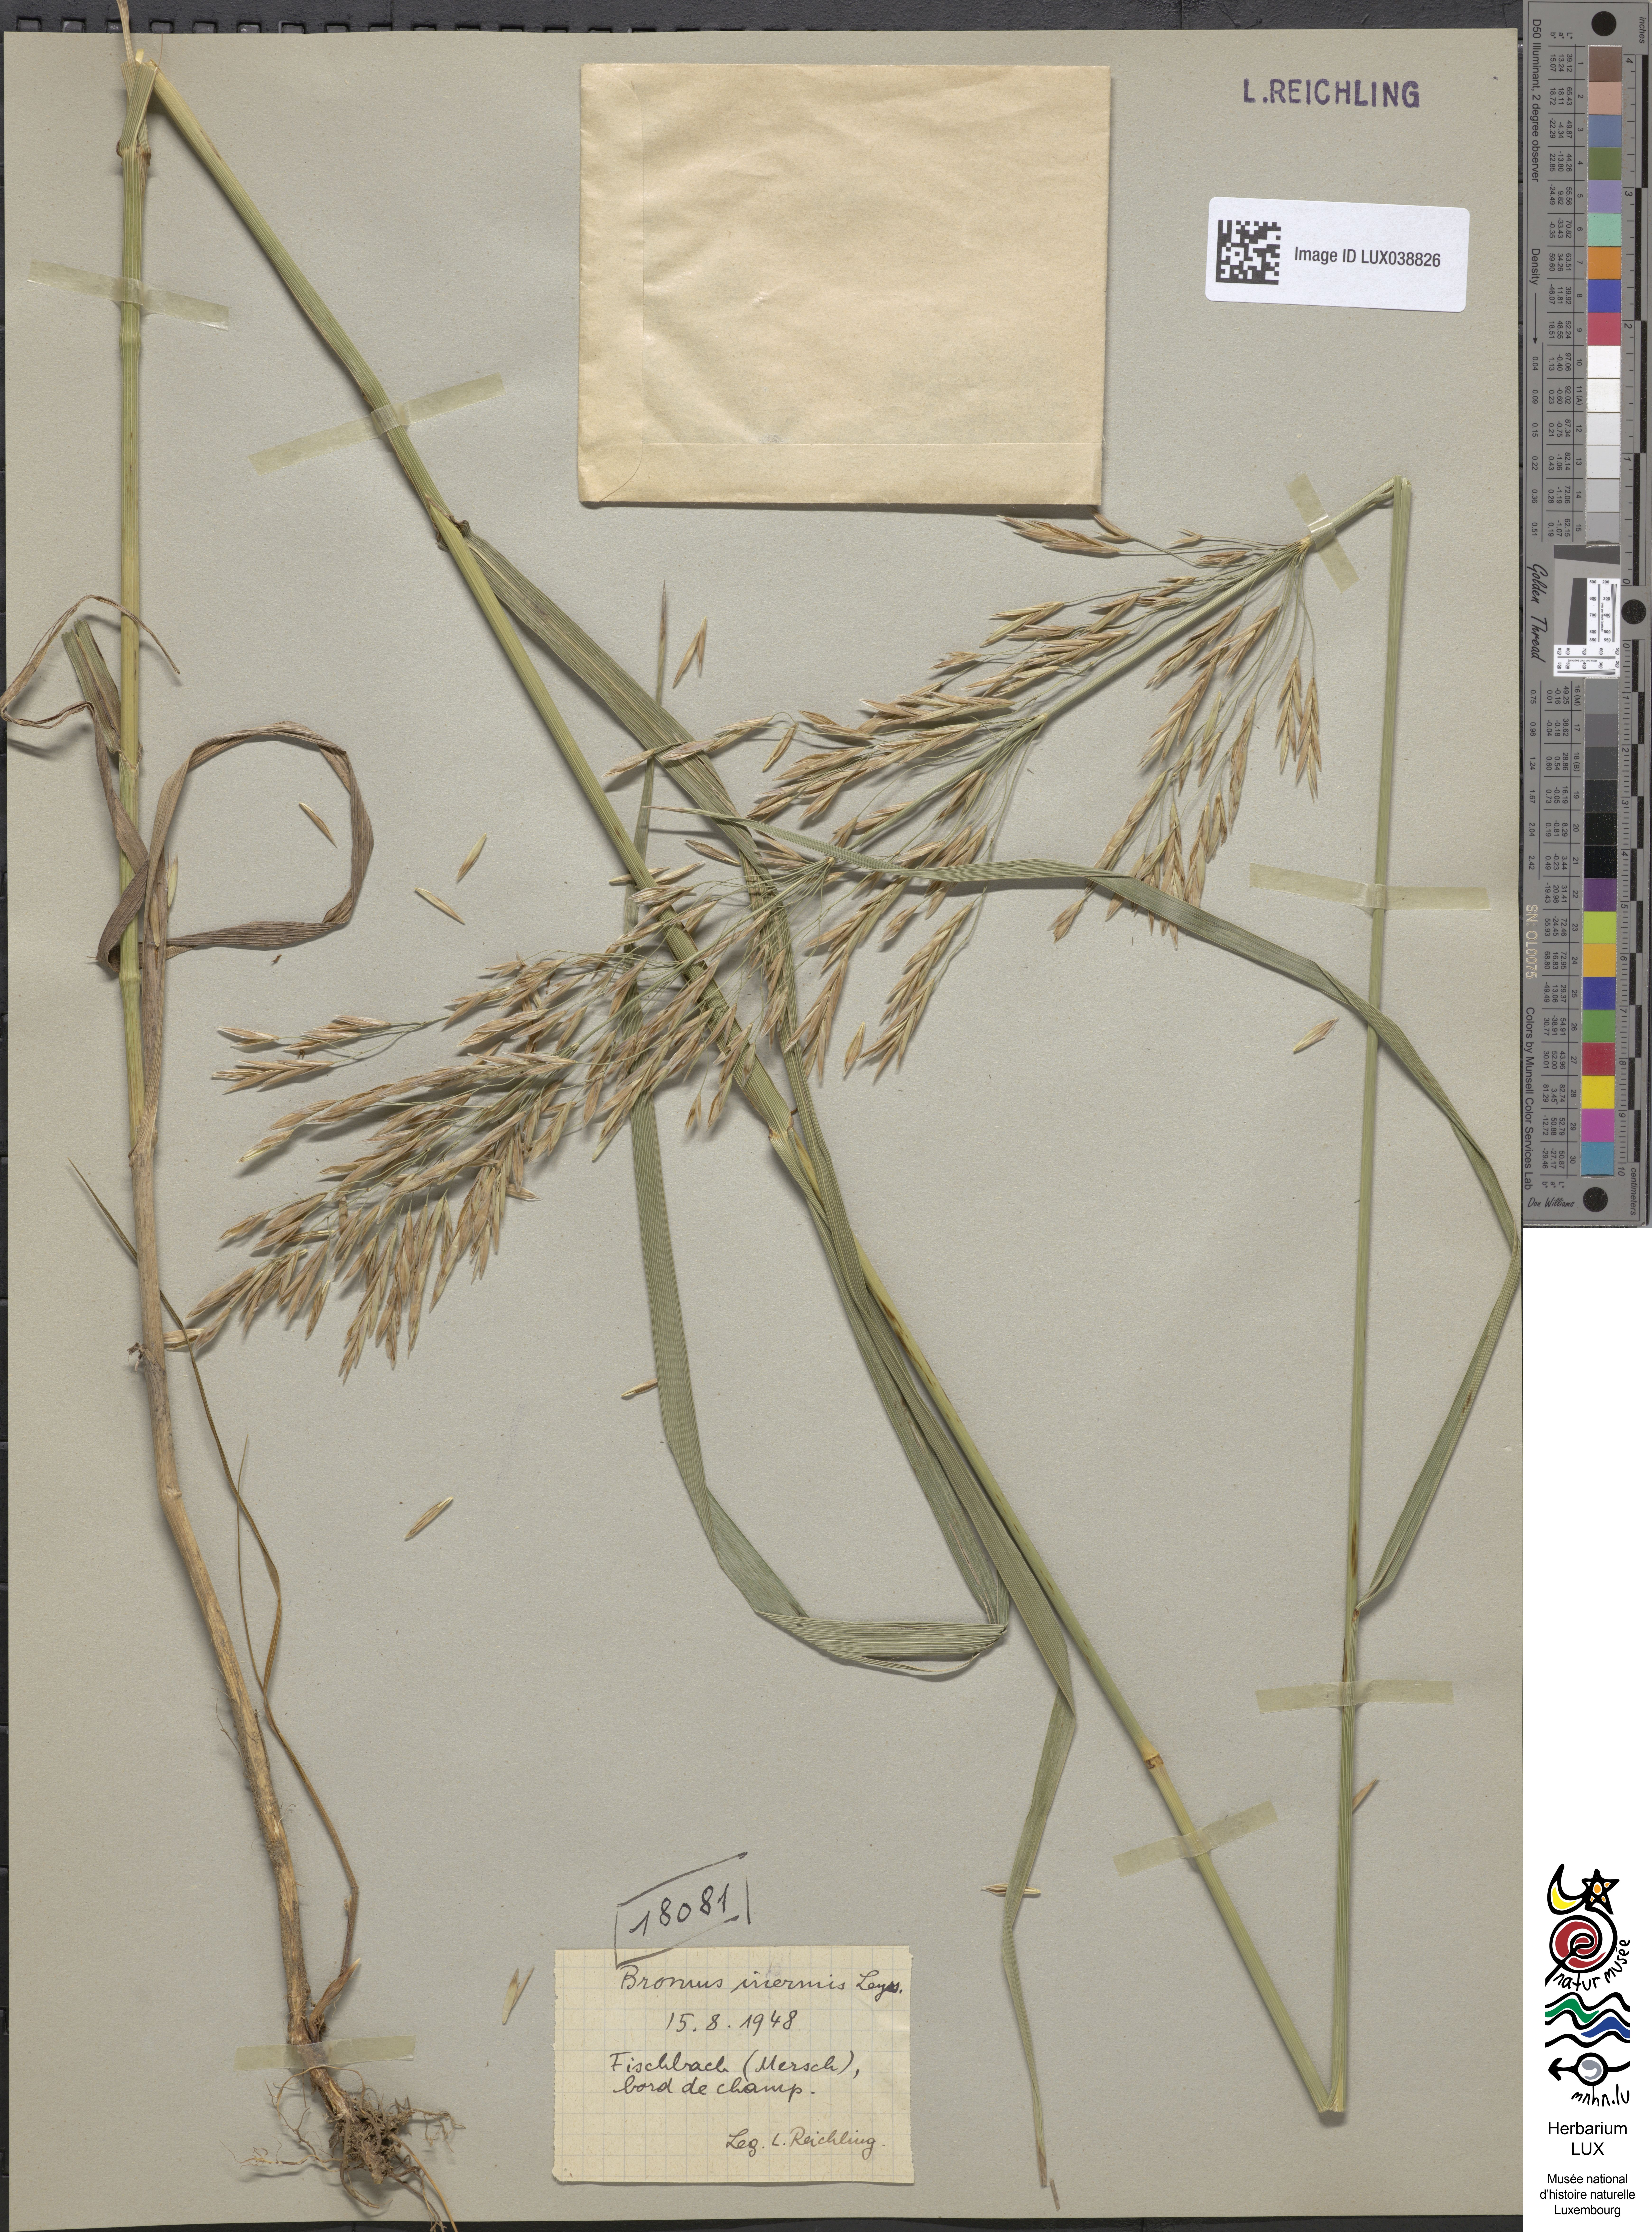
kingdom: Plantae
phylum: Tracheophyta
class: Liliopsida
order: Poales
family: Poaceae
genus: Bromus
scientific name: Bromus inermis
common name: Smooth brome
